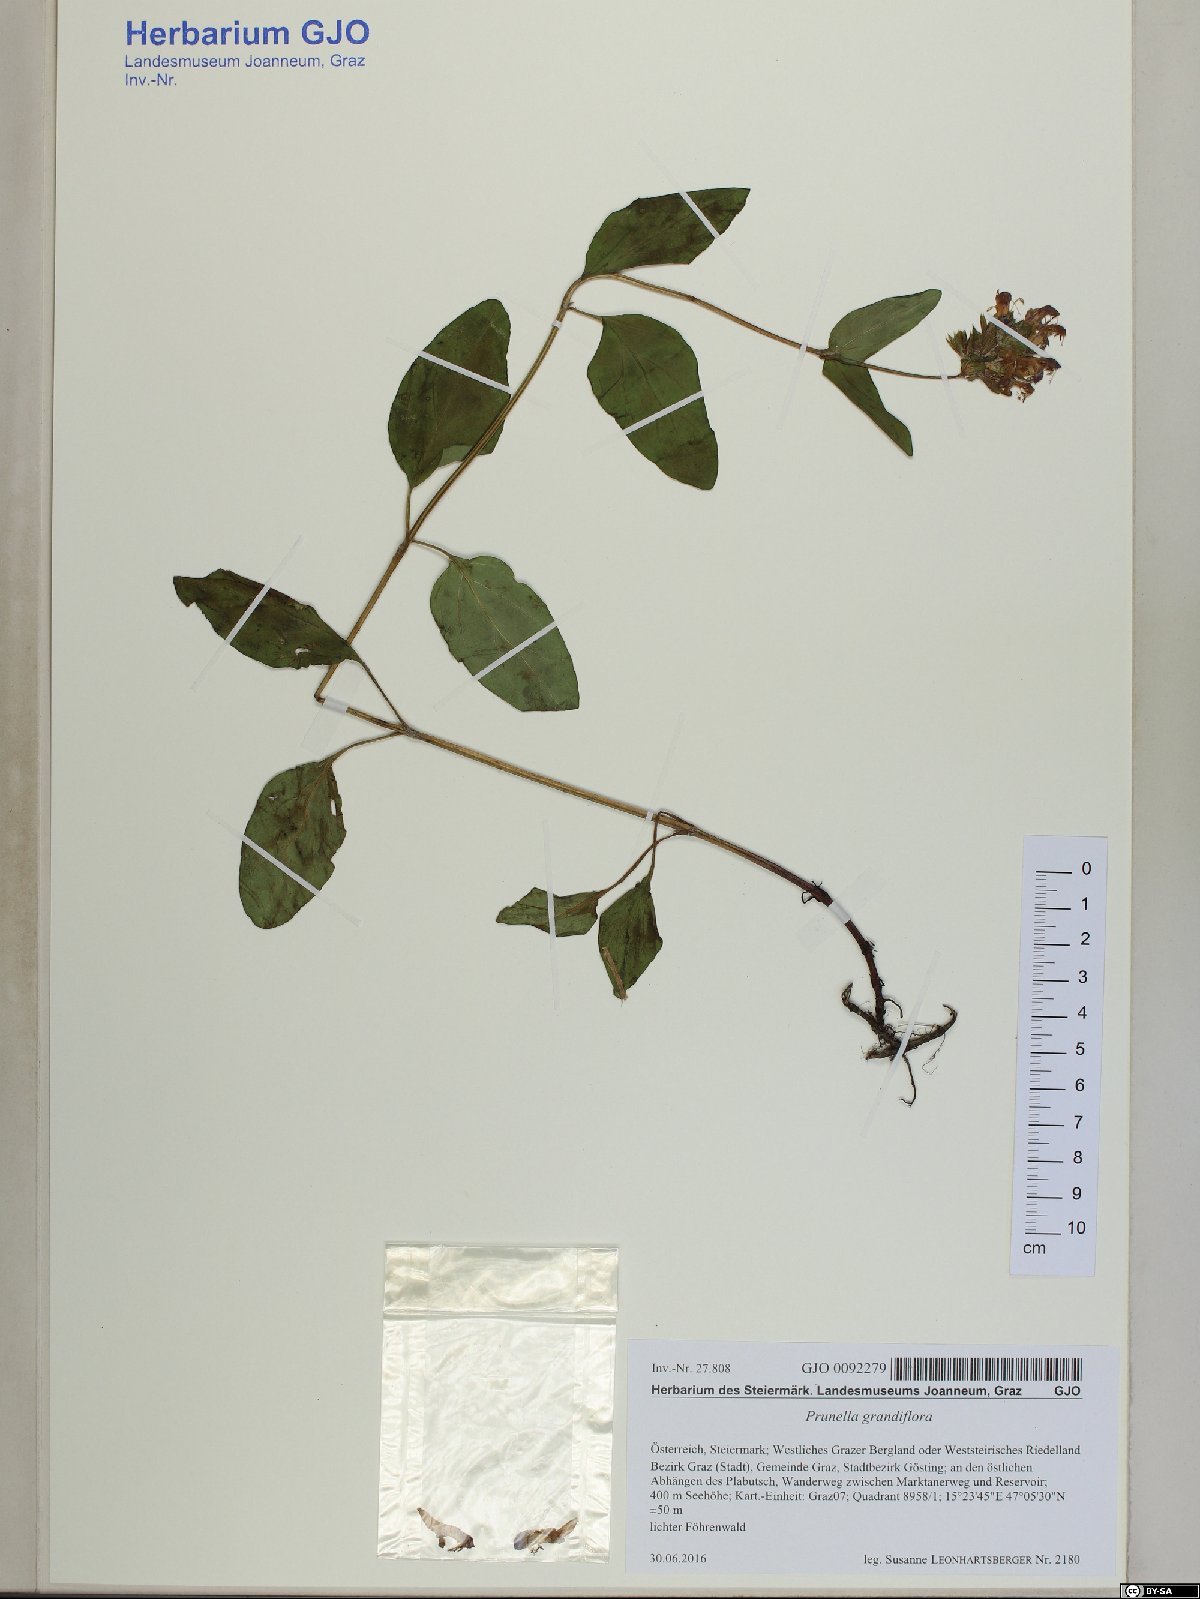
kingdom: Plantae
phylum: Tracheophyta
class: Magnoliopsida
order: Lamiales
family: Lamiaceae
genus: Prunella
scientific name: Prunella grandiflora
